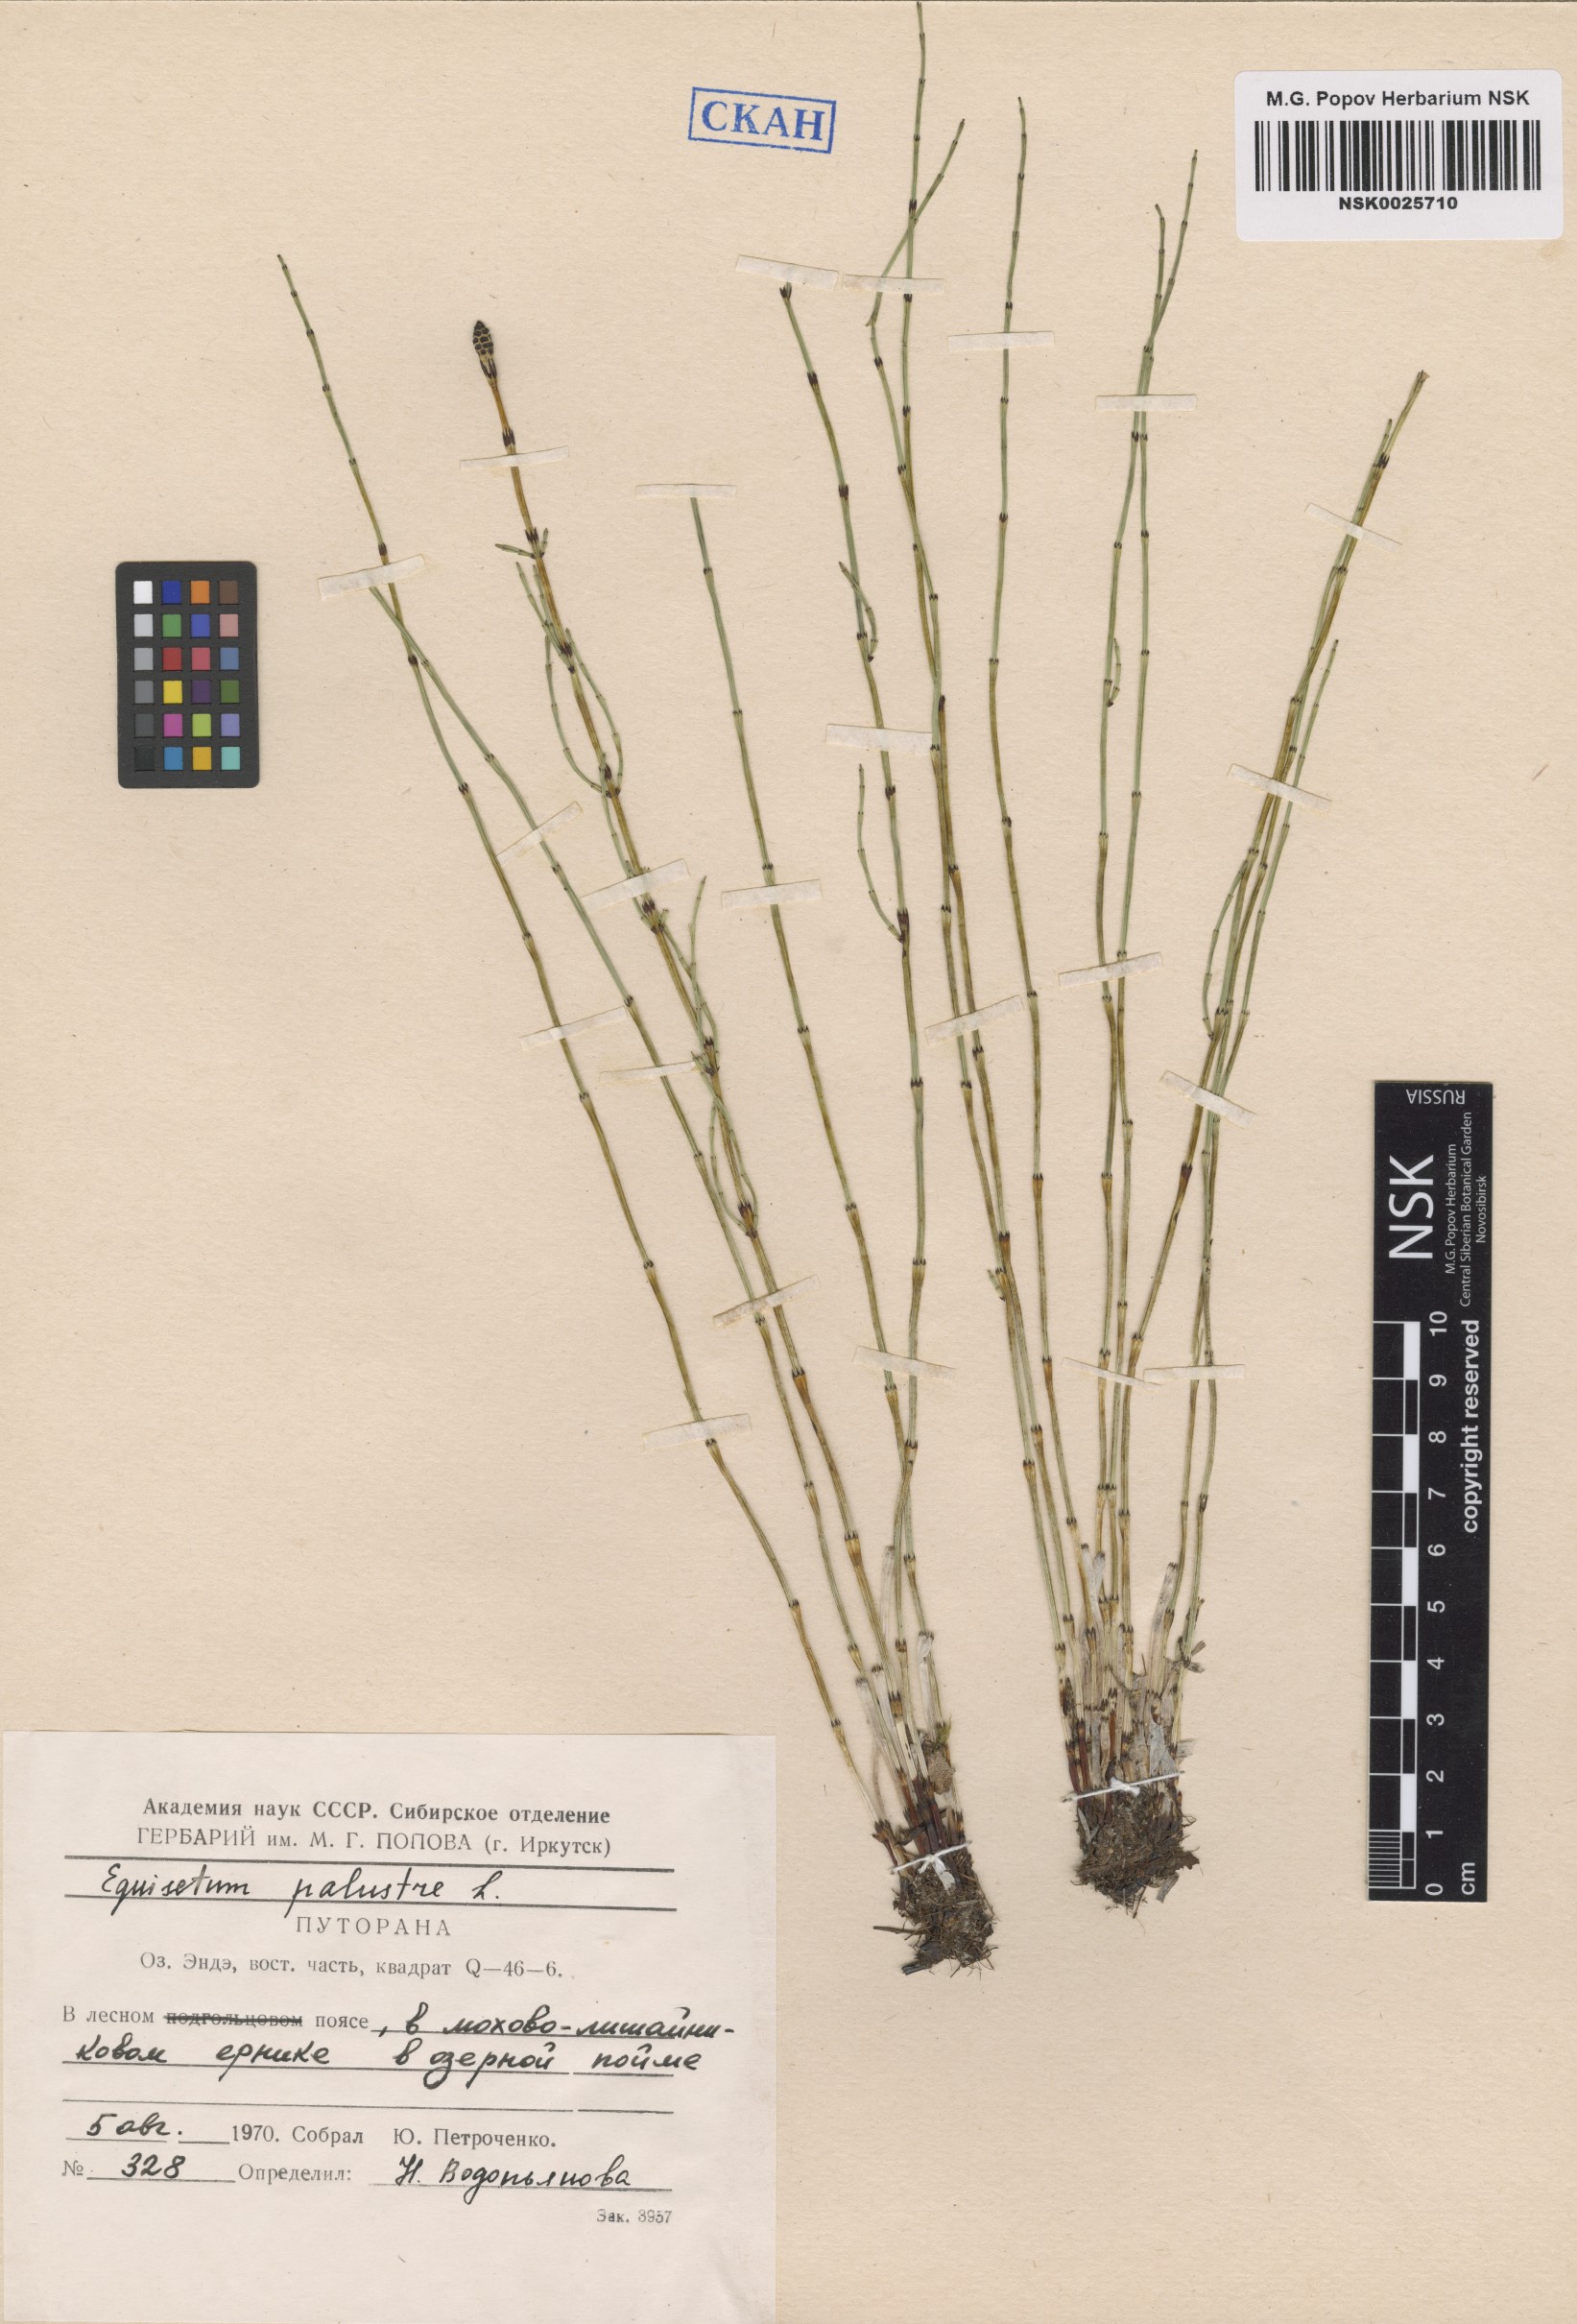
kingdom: Plantae
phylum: Tracheophyta
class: Polypodiopsida
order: Equisetales
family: Equisetaceae
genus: Equisetum
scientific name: Equisetum palustre
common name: Marsh horsetail
